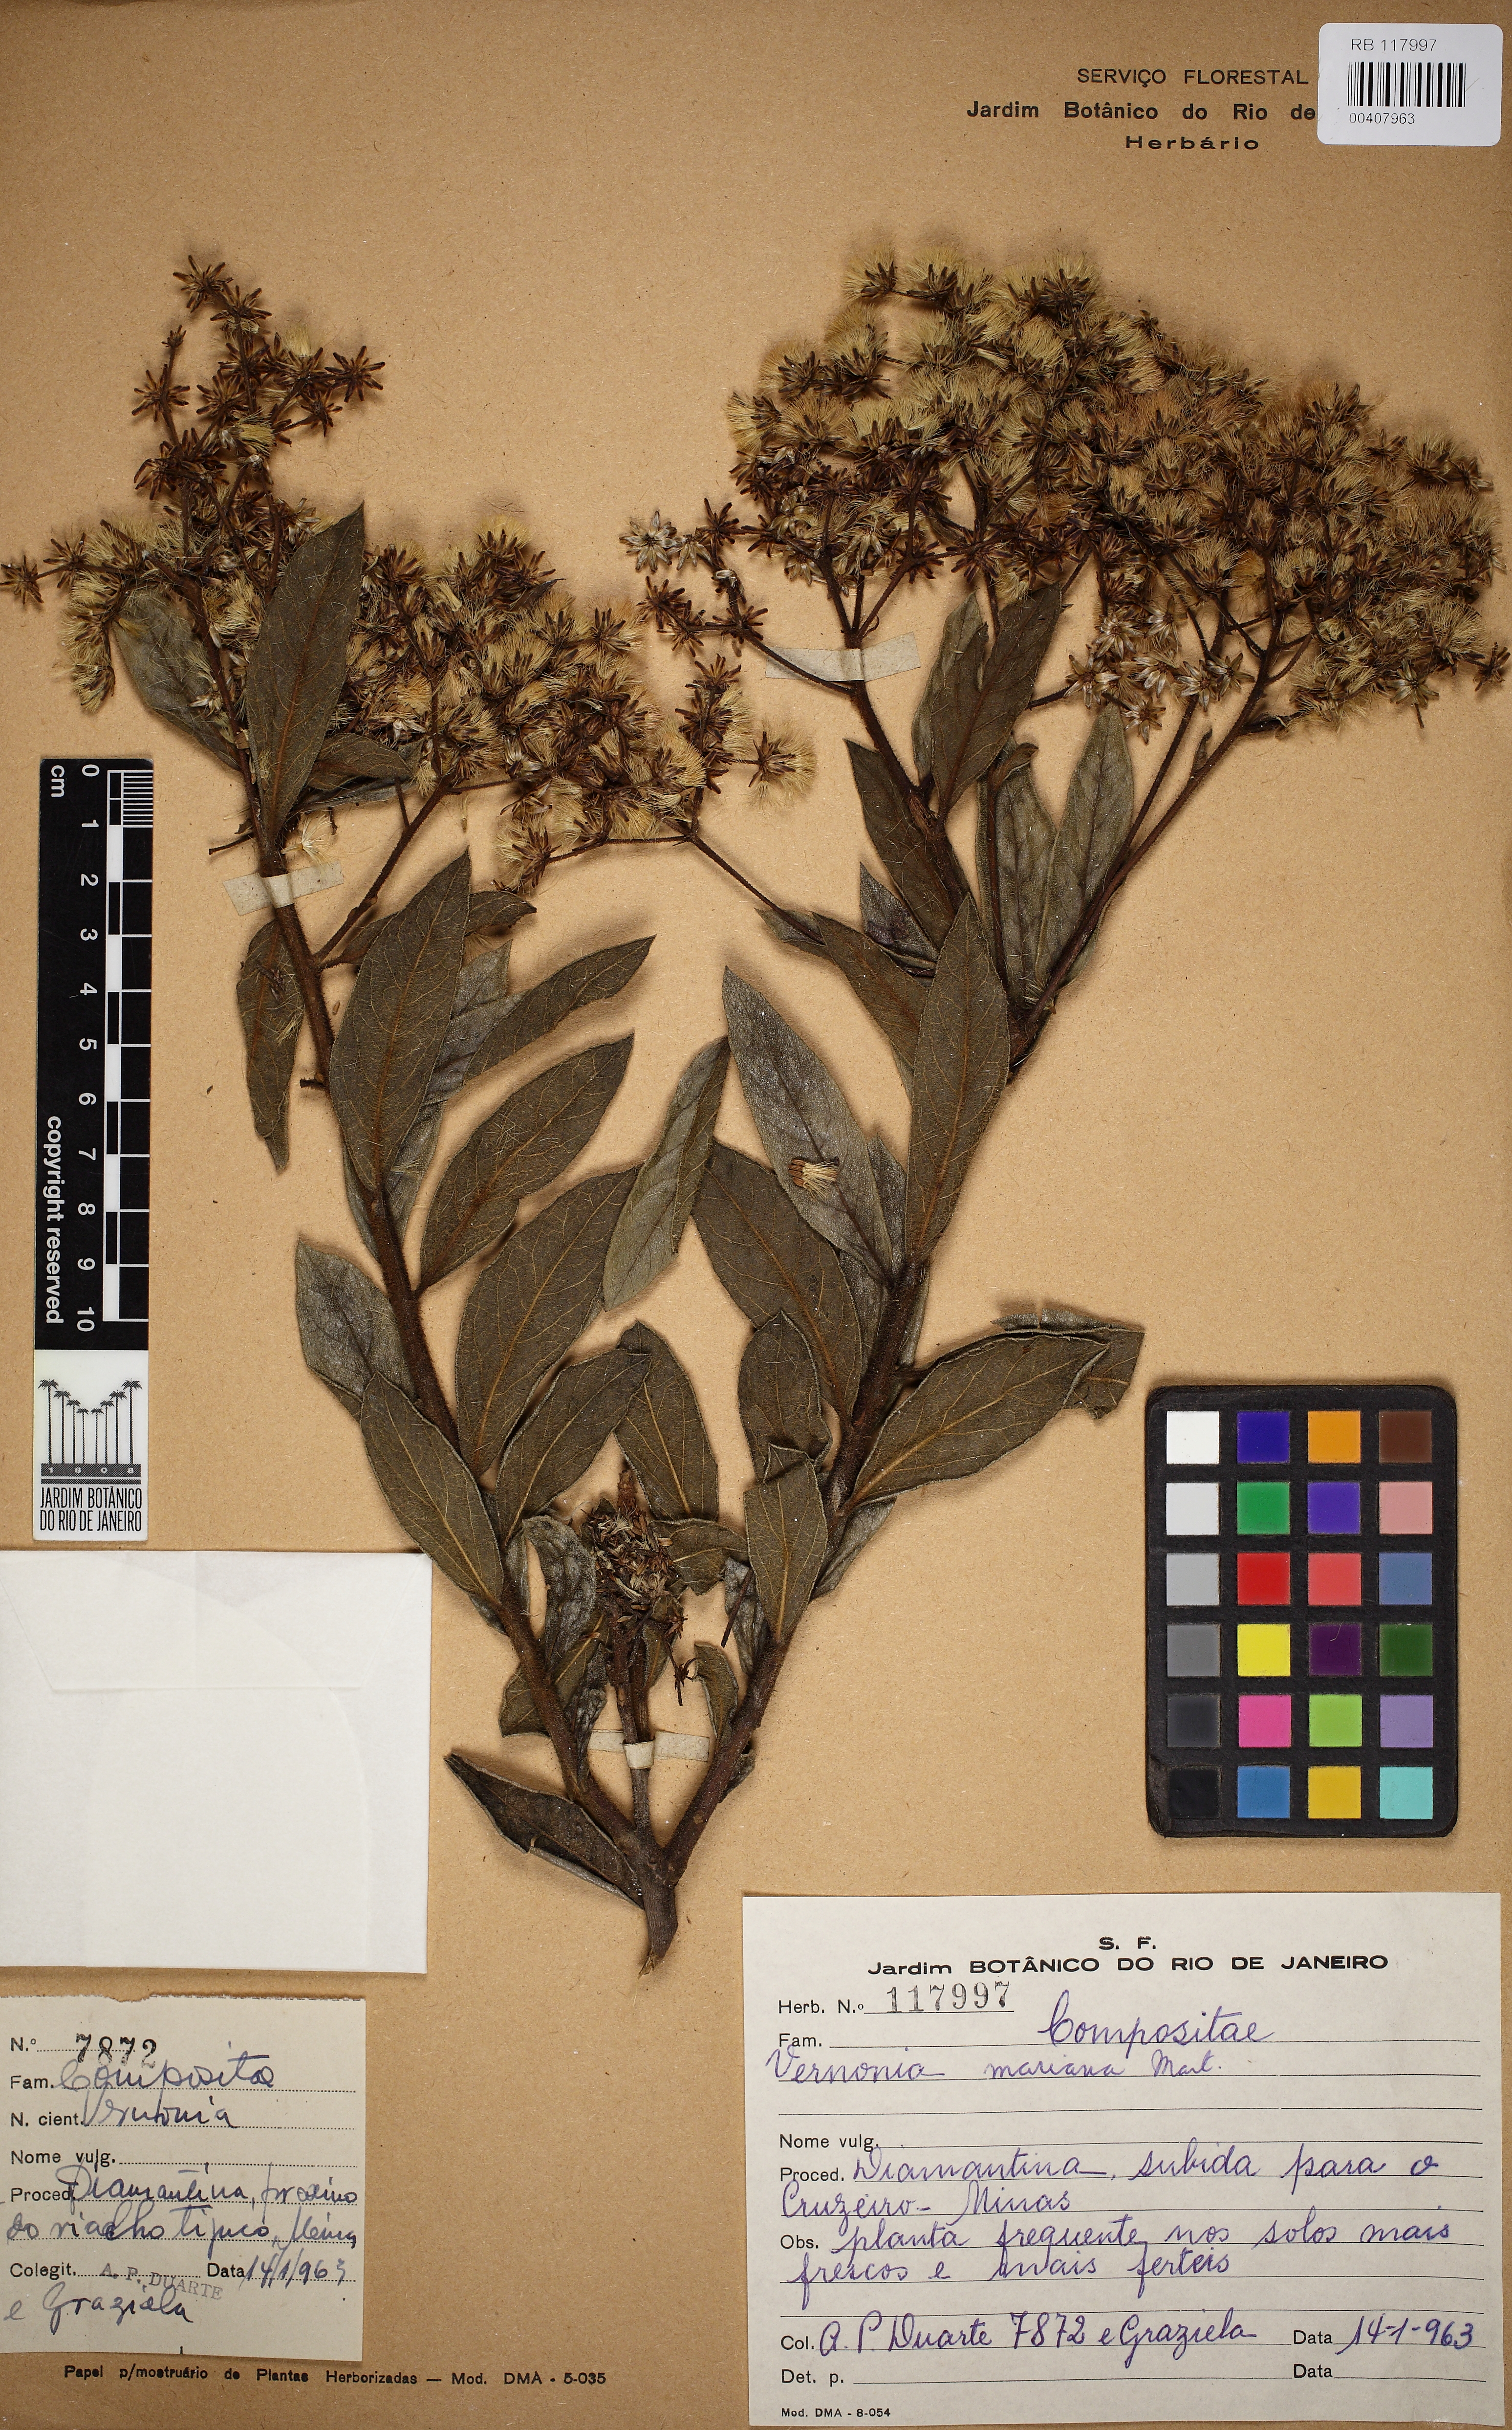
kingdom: Plantae
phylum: Tracheophyta
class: Magnoliopsida
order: Asterales
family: Asteraceae
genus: Vernonanthura
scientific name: Vernonanthura mariana
